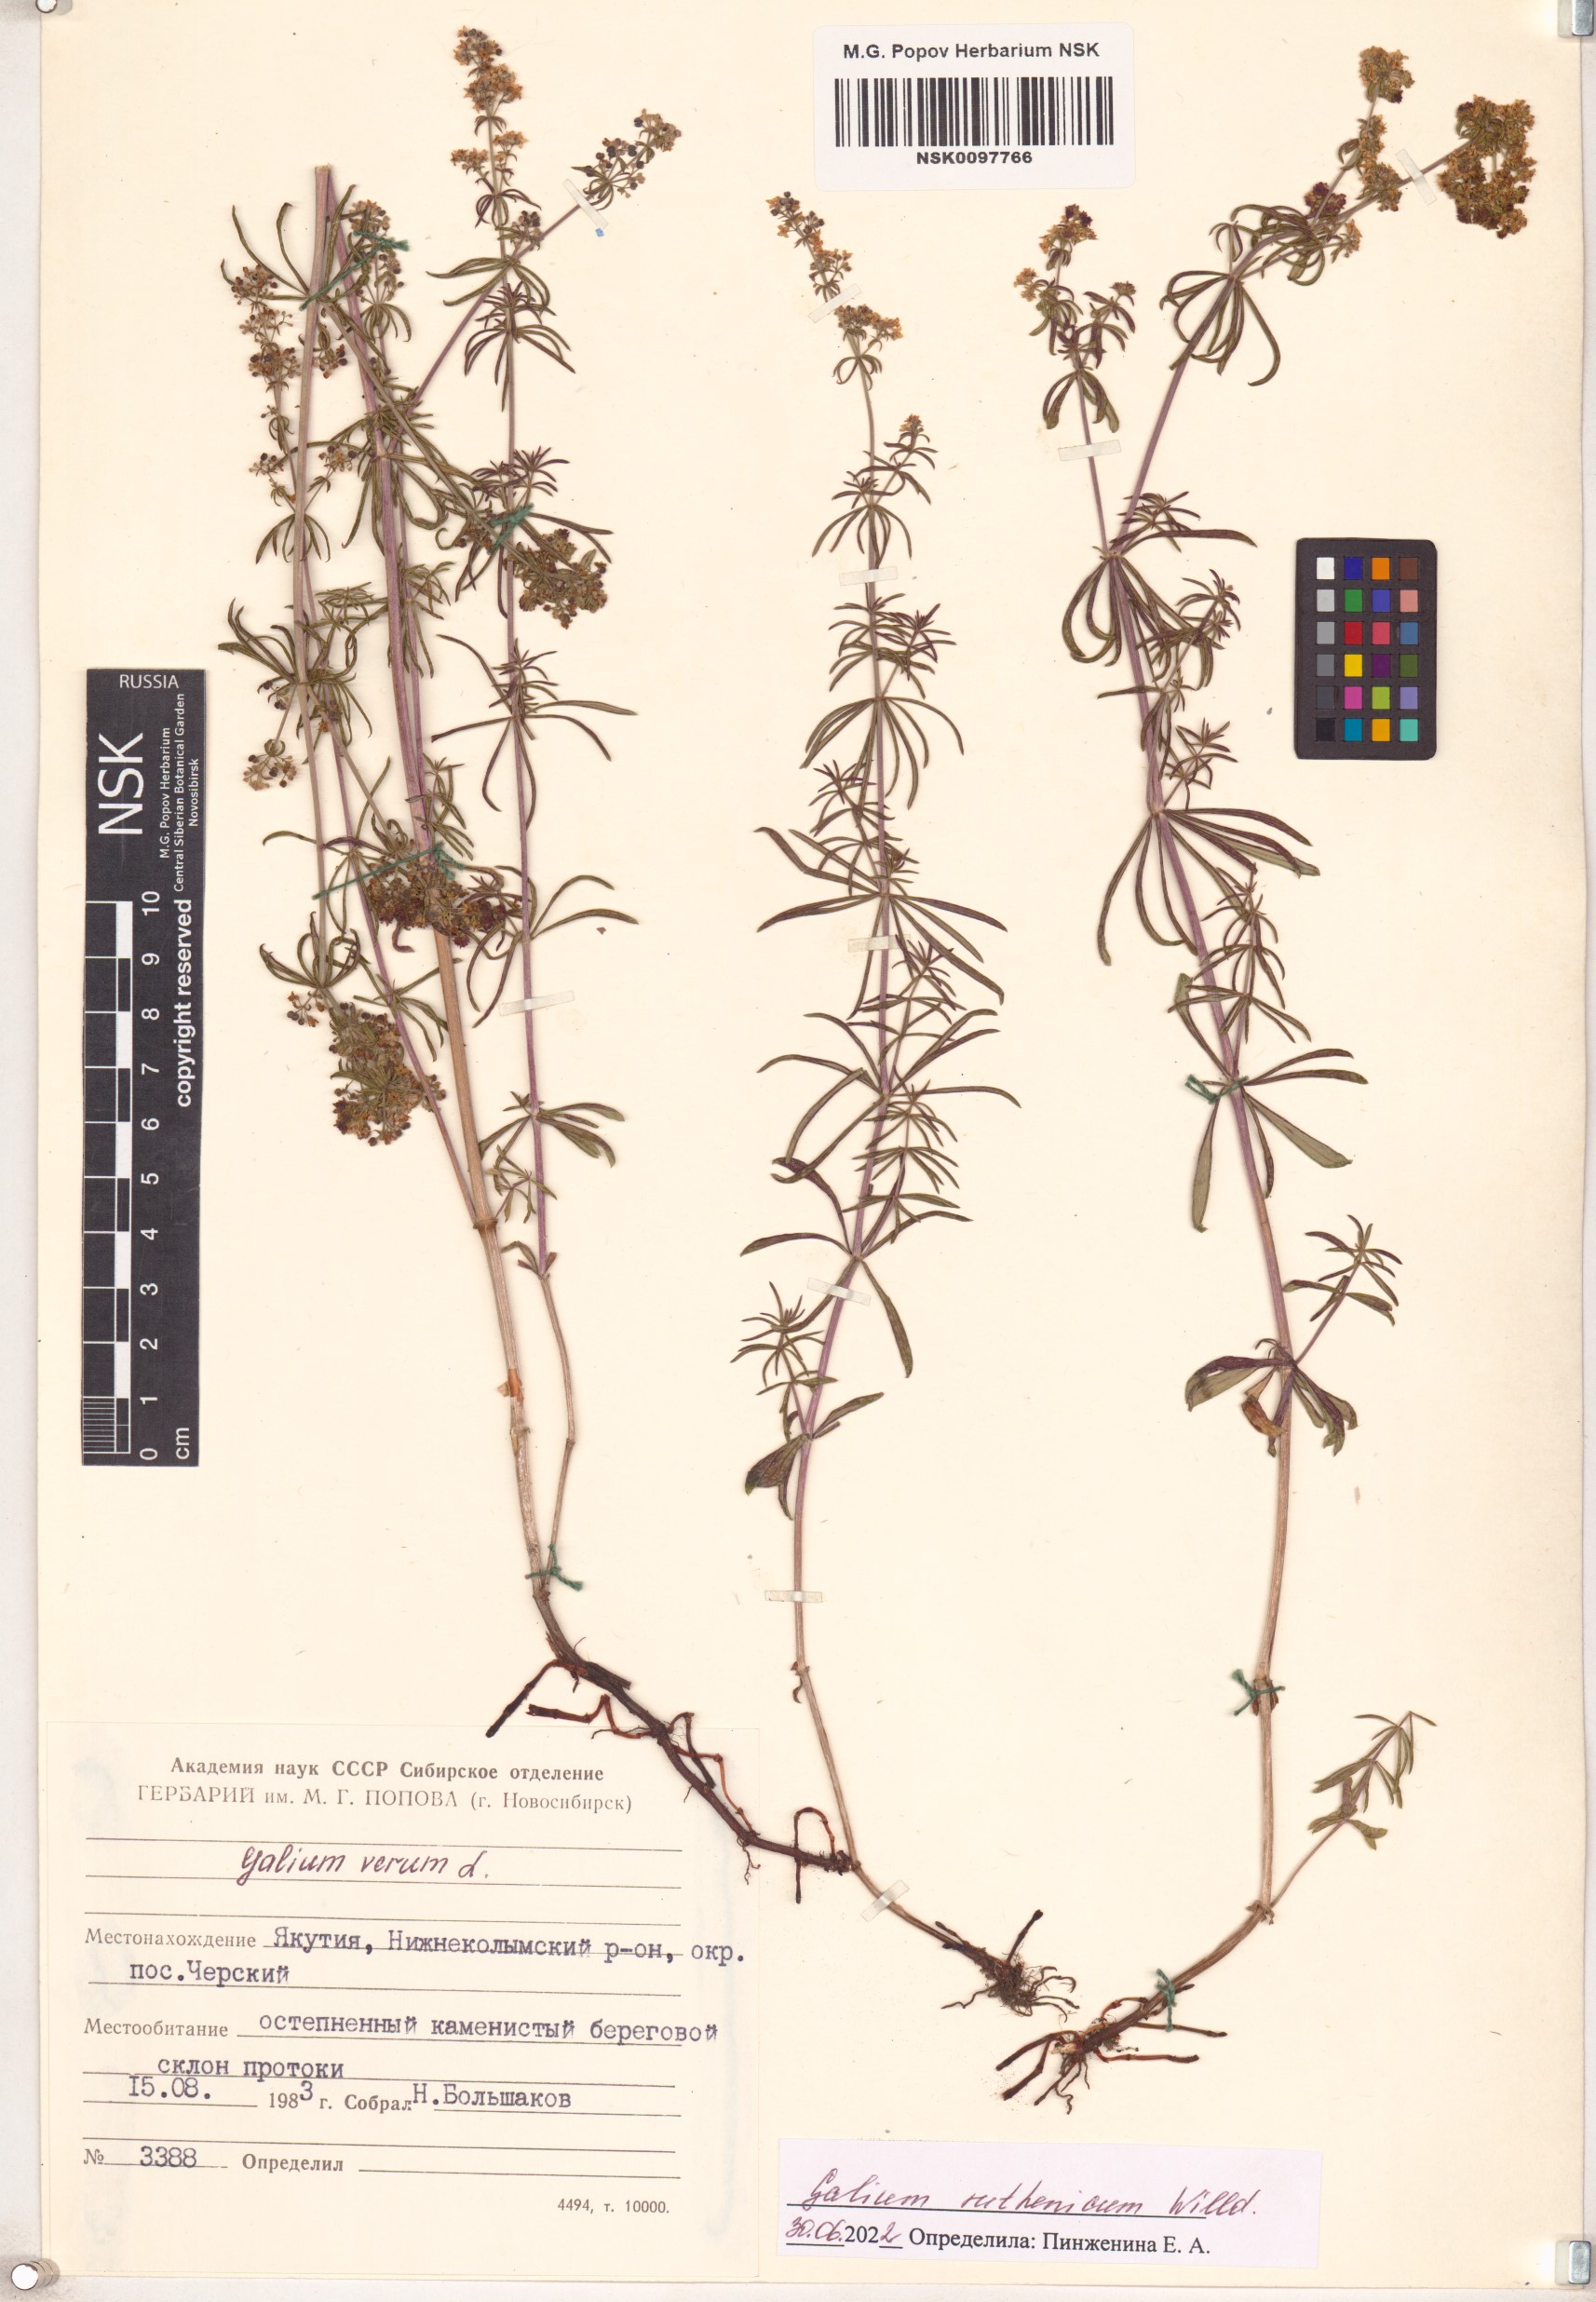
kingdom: Plantae
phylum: Tracheophyta
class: Magnoliopsida
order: Gentianales
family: Rubiaceae
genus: Galium
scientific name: Galium verum
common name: Lady's bedstraw
